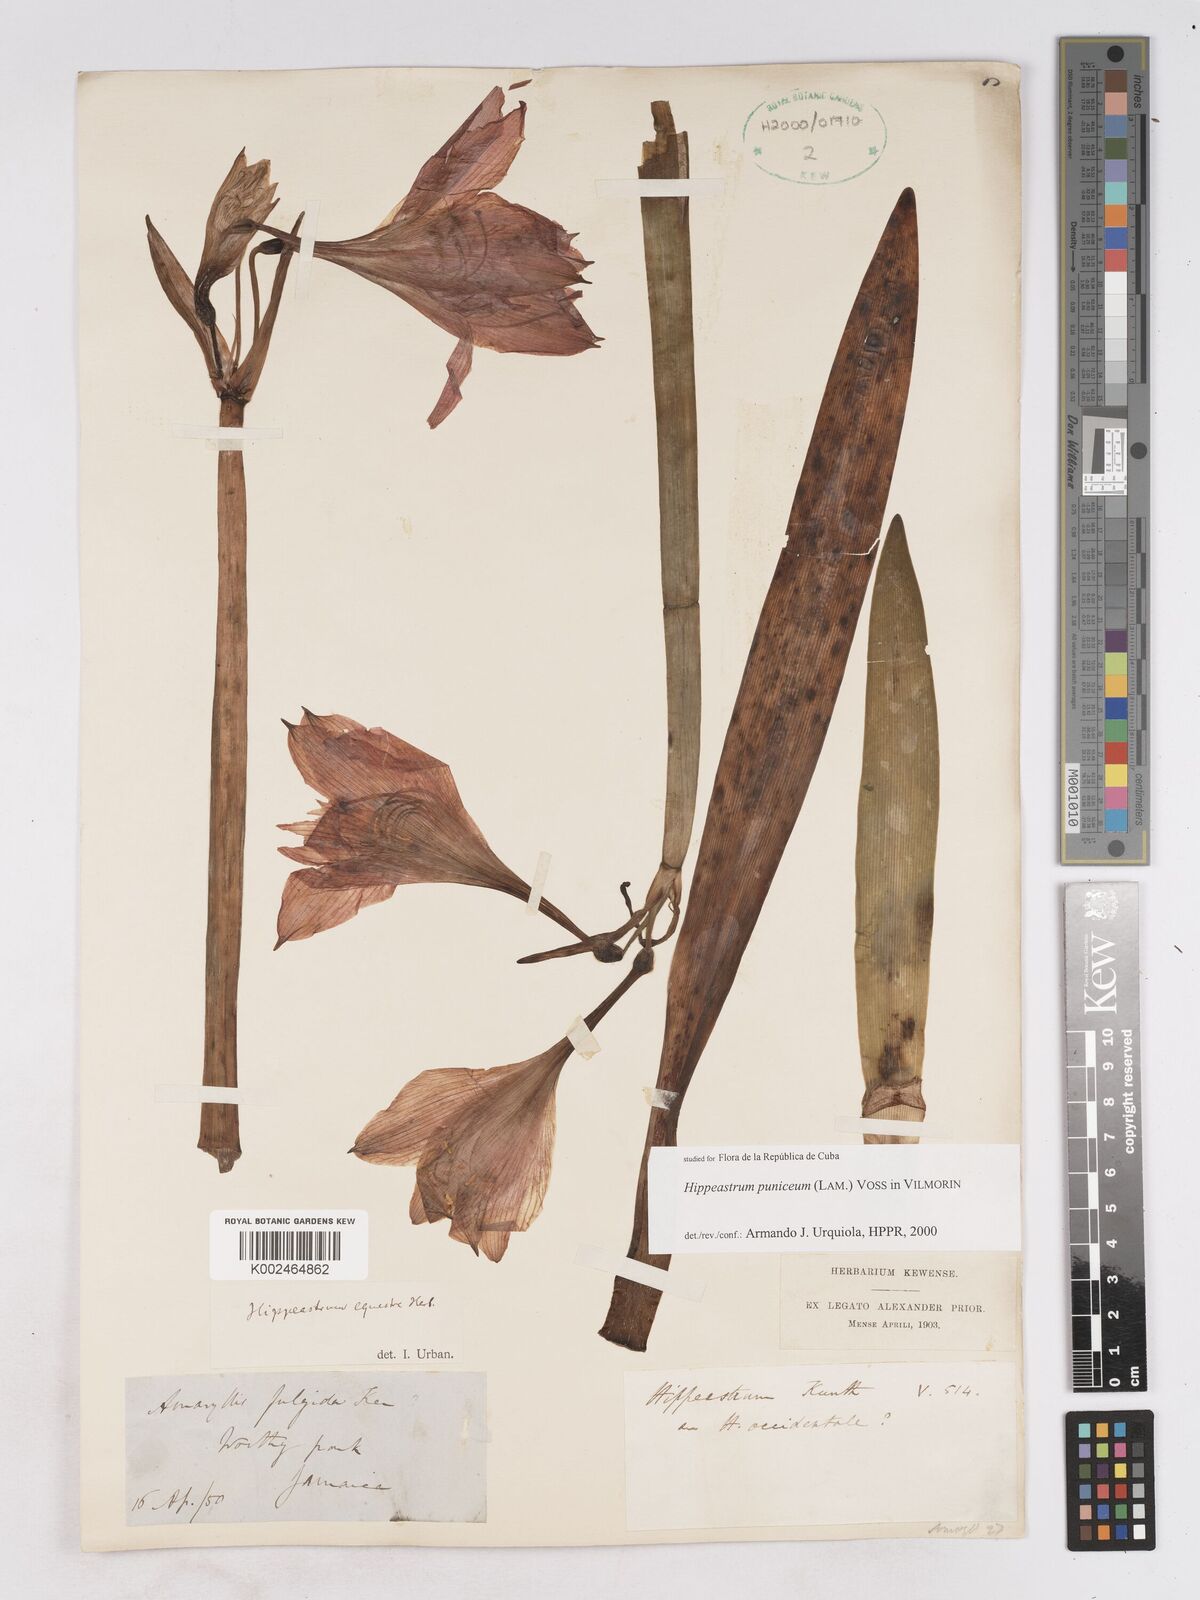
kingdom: Plantae
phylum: Tracheophyta
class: Liliopsida
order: Asparagales
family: Amaryllidaceae
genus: Hippeastrum
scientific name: Hippeastrum puniceum
